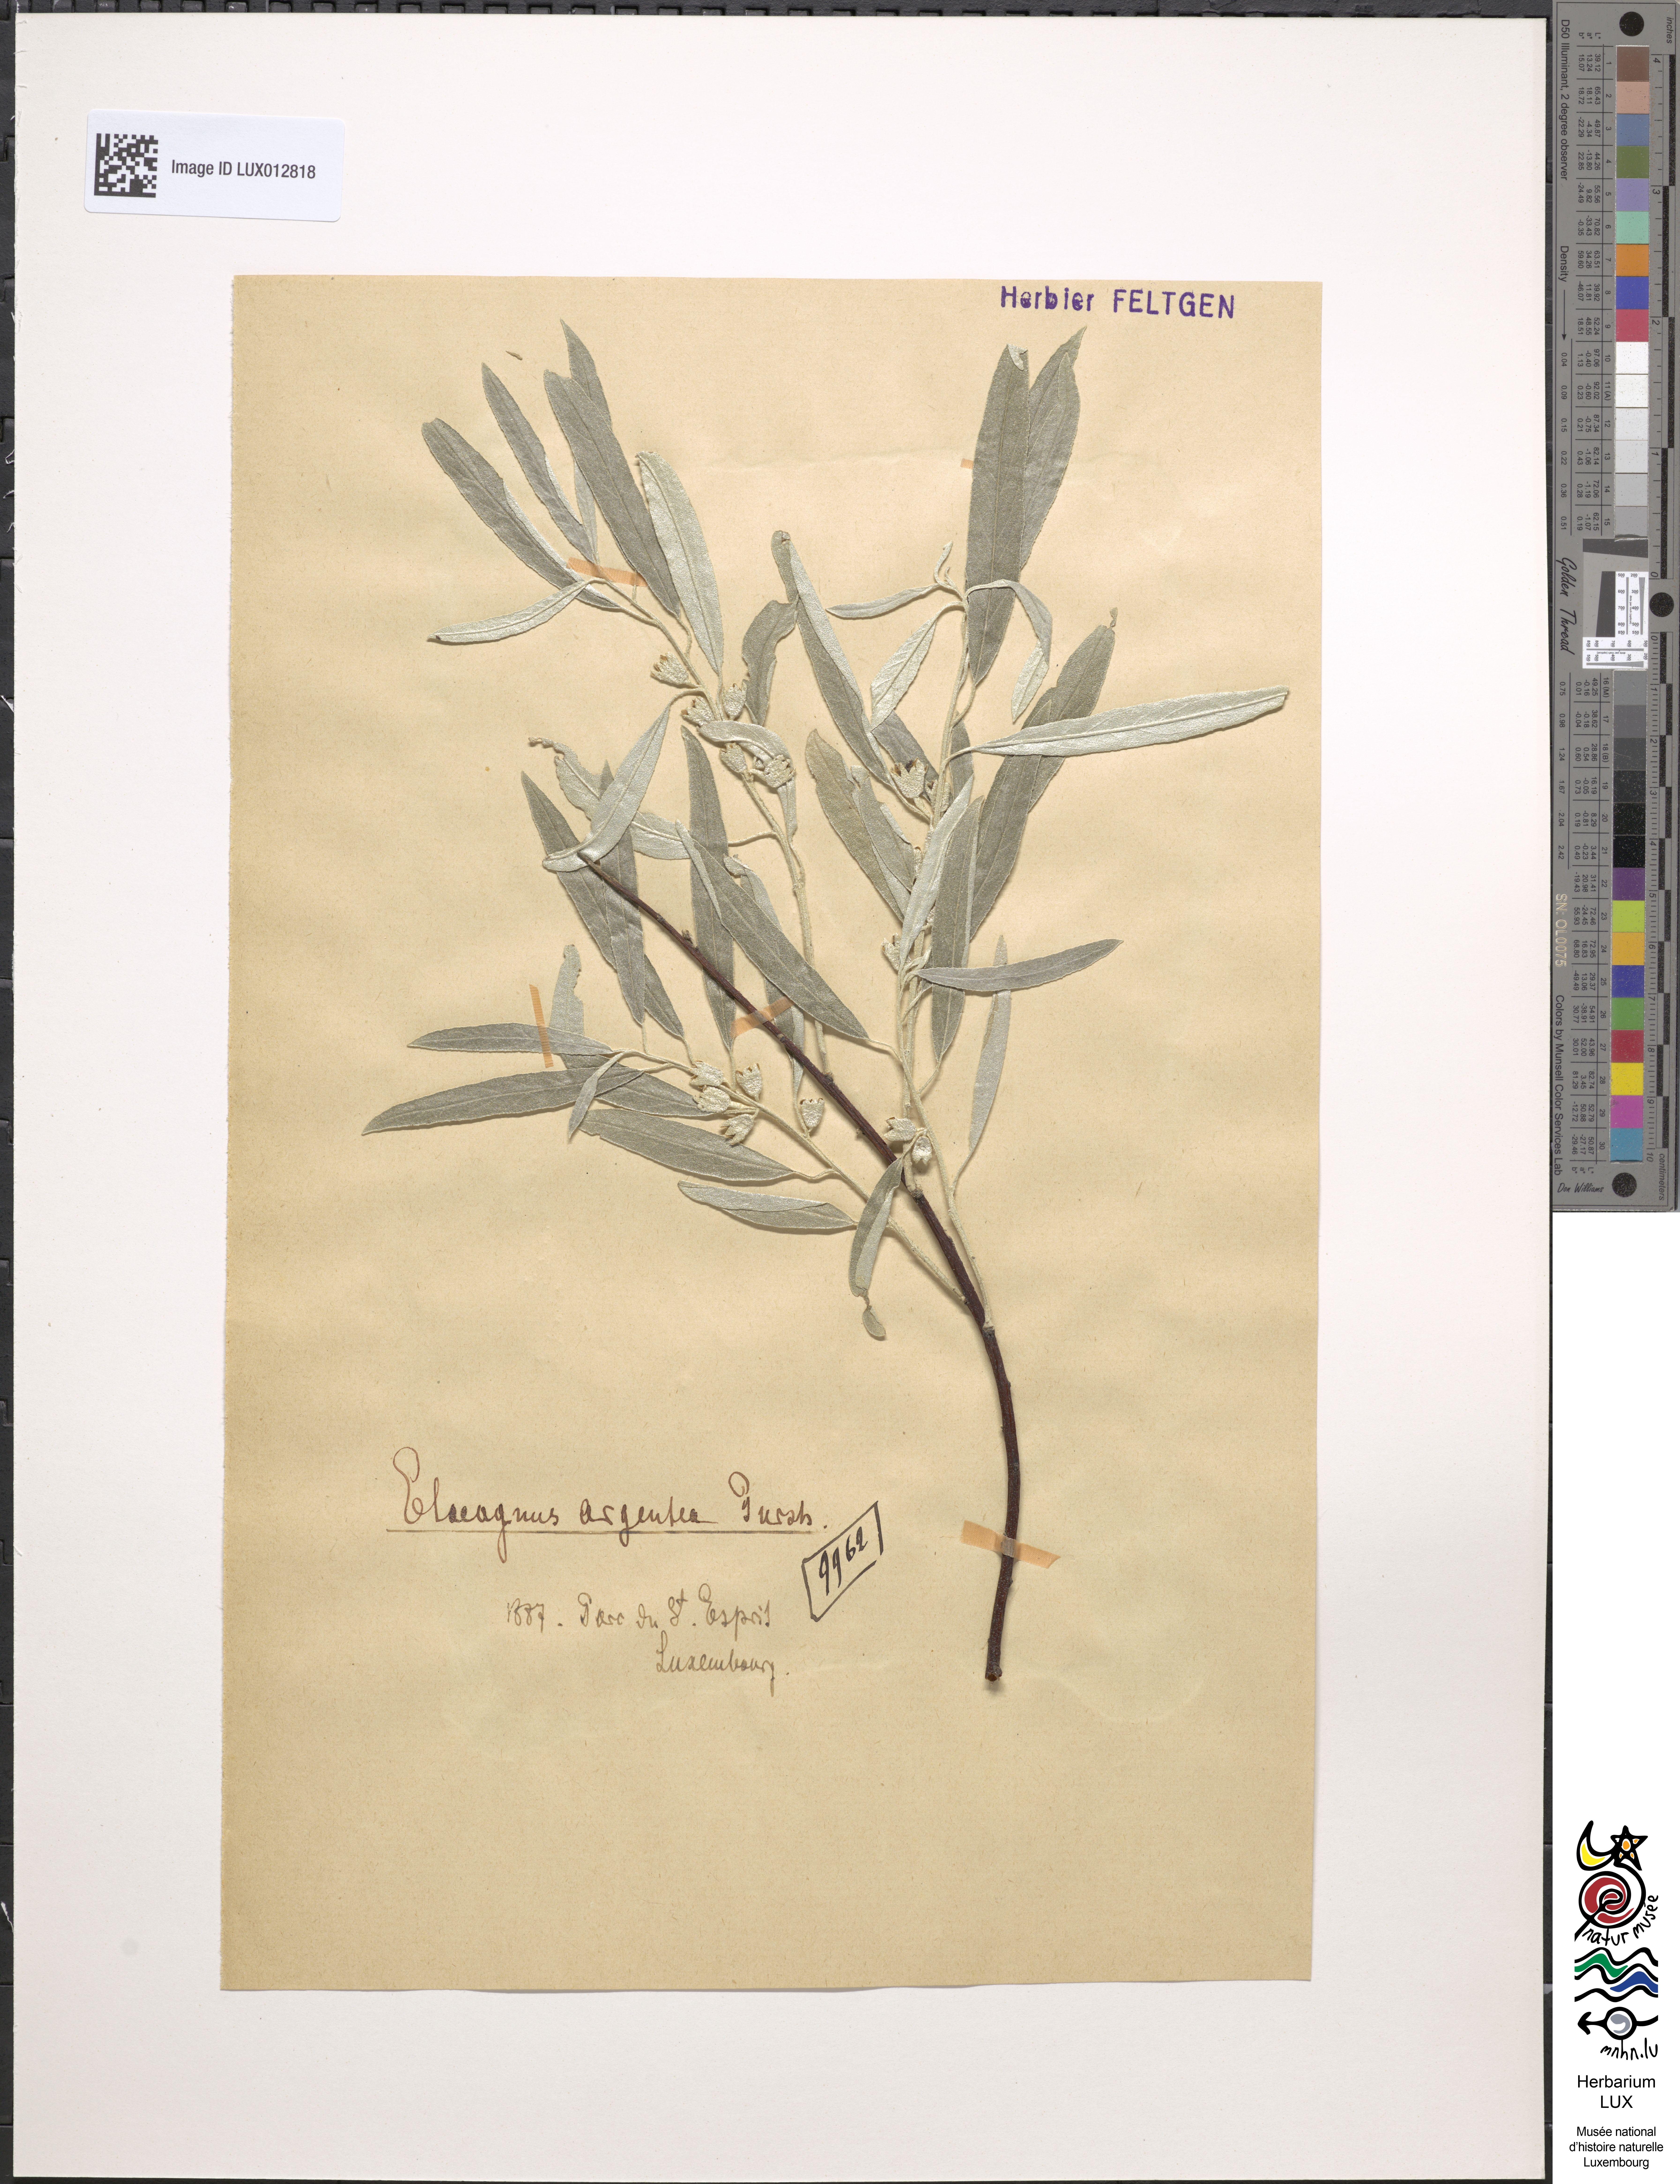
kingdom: Plantae
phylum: Tracheophyta
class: Magnoliopsida
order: Rosales
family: Elaeagnaceae
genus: Elaeagnus
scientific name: Elaeagnus commutata
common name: Silverberry
